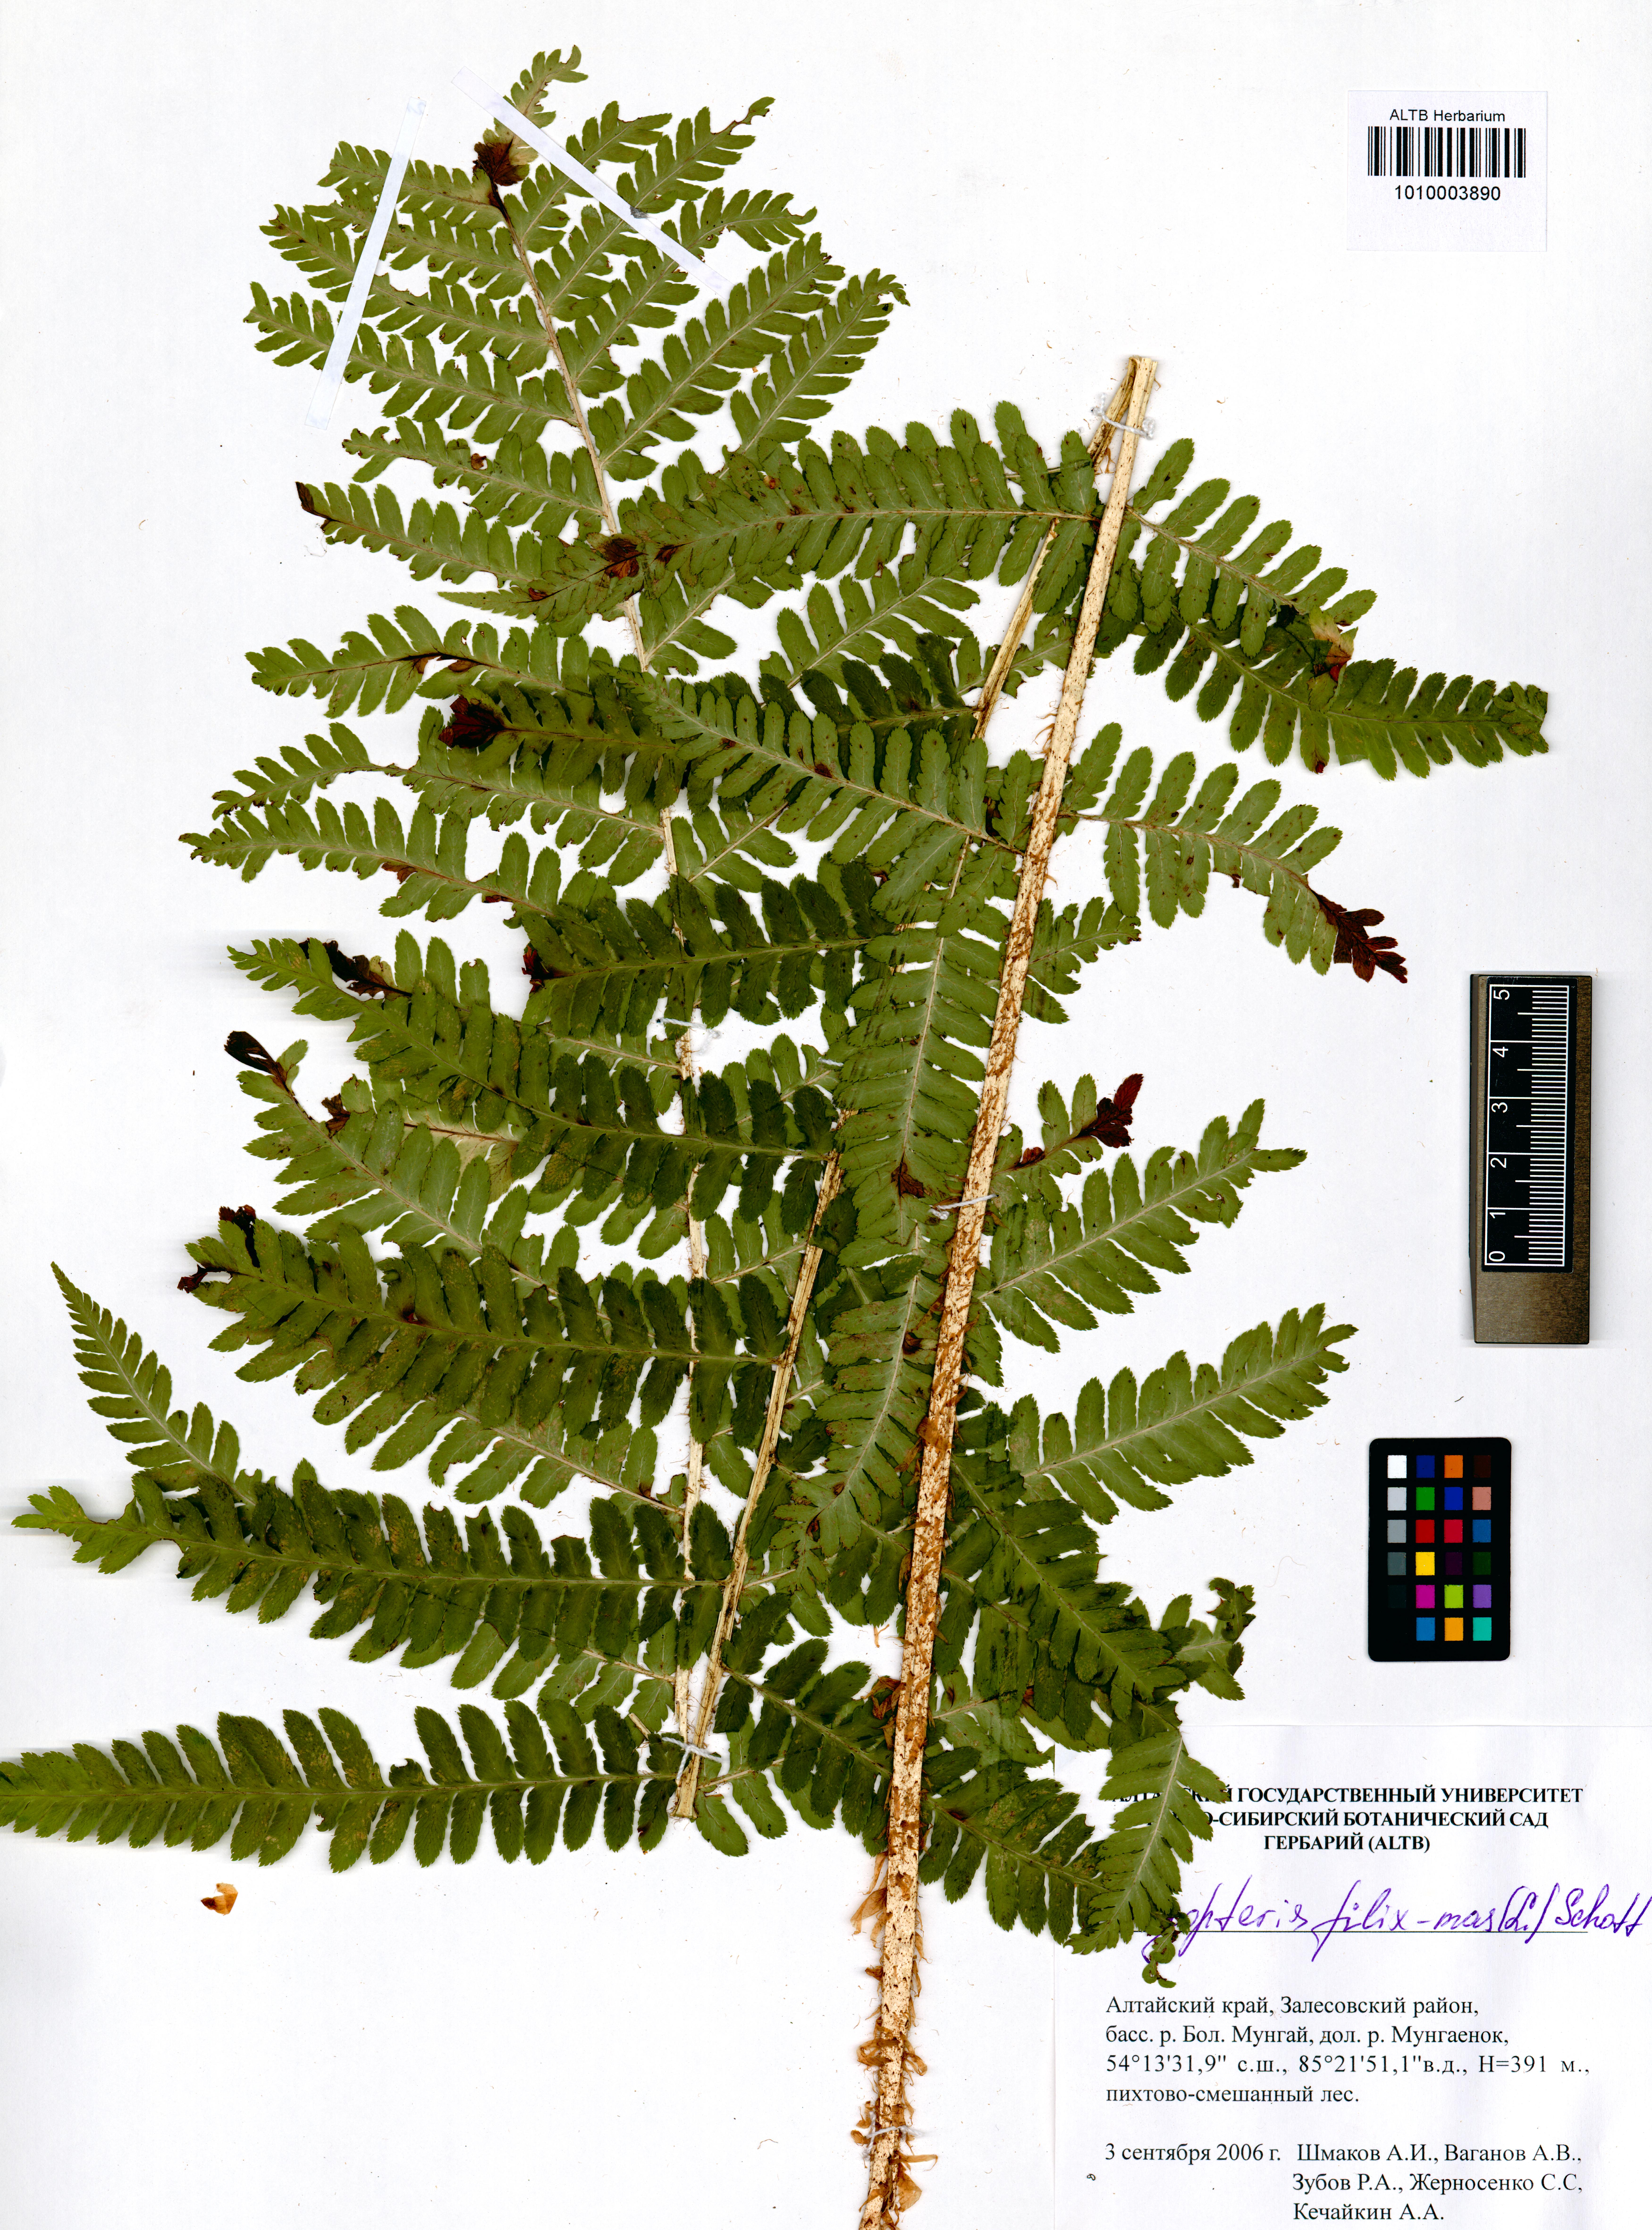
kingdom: Plantae
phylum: Tracheophyta
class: Polypodiopsida
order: Polypodiales
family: Dryopteridaceae
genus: Dryopteris
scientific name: Dryopteris filix-mas
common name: Male fern
